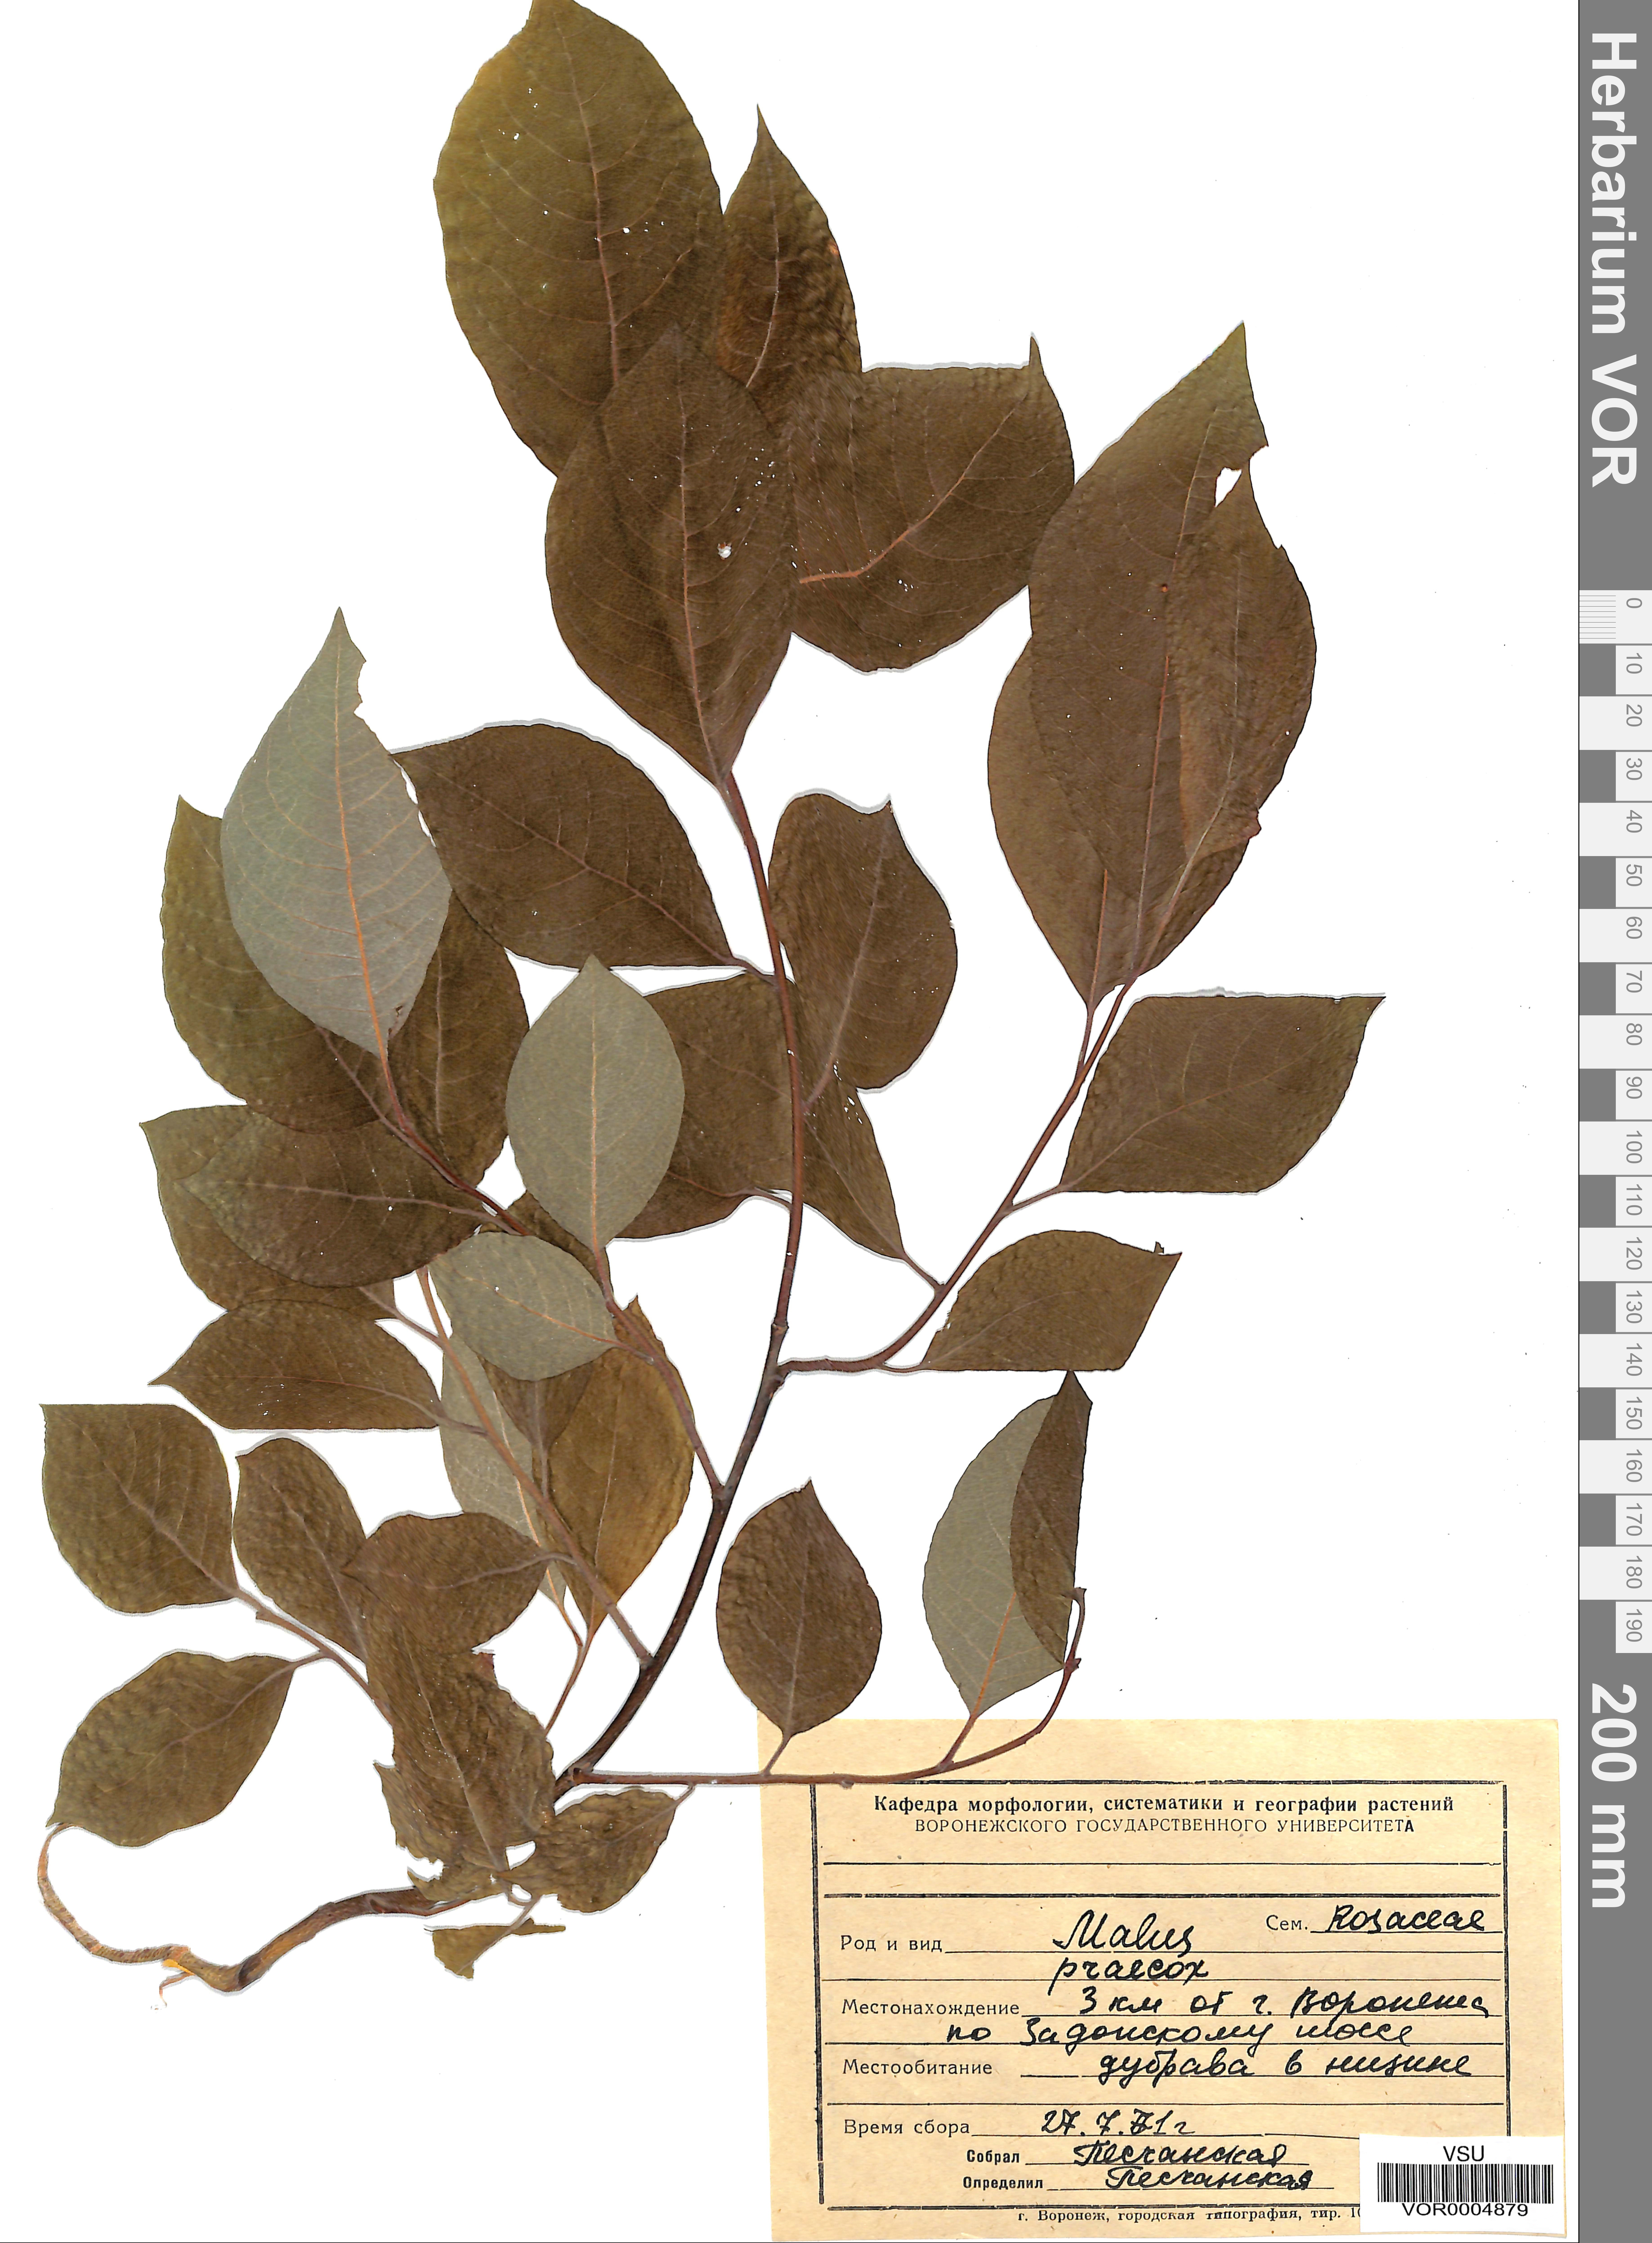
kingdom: Plantae
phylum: Tracheophyta
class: Magnoliopsida
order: Rosales
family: Rosaceae
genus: Malus
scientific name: Malus domestica
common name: Apple
